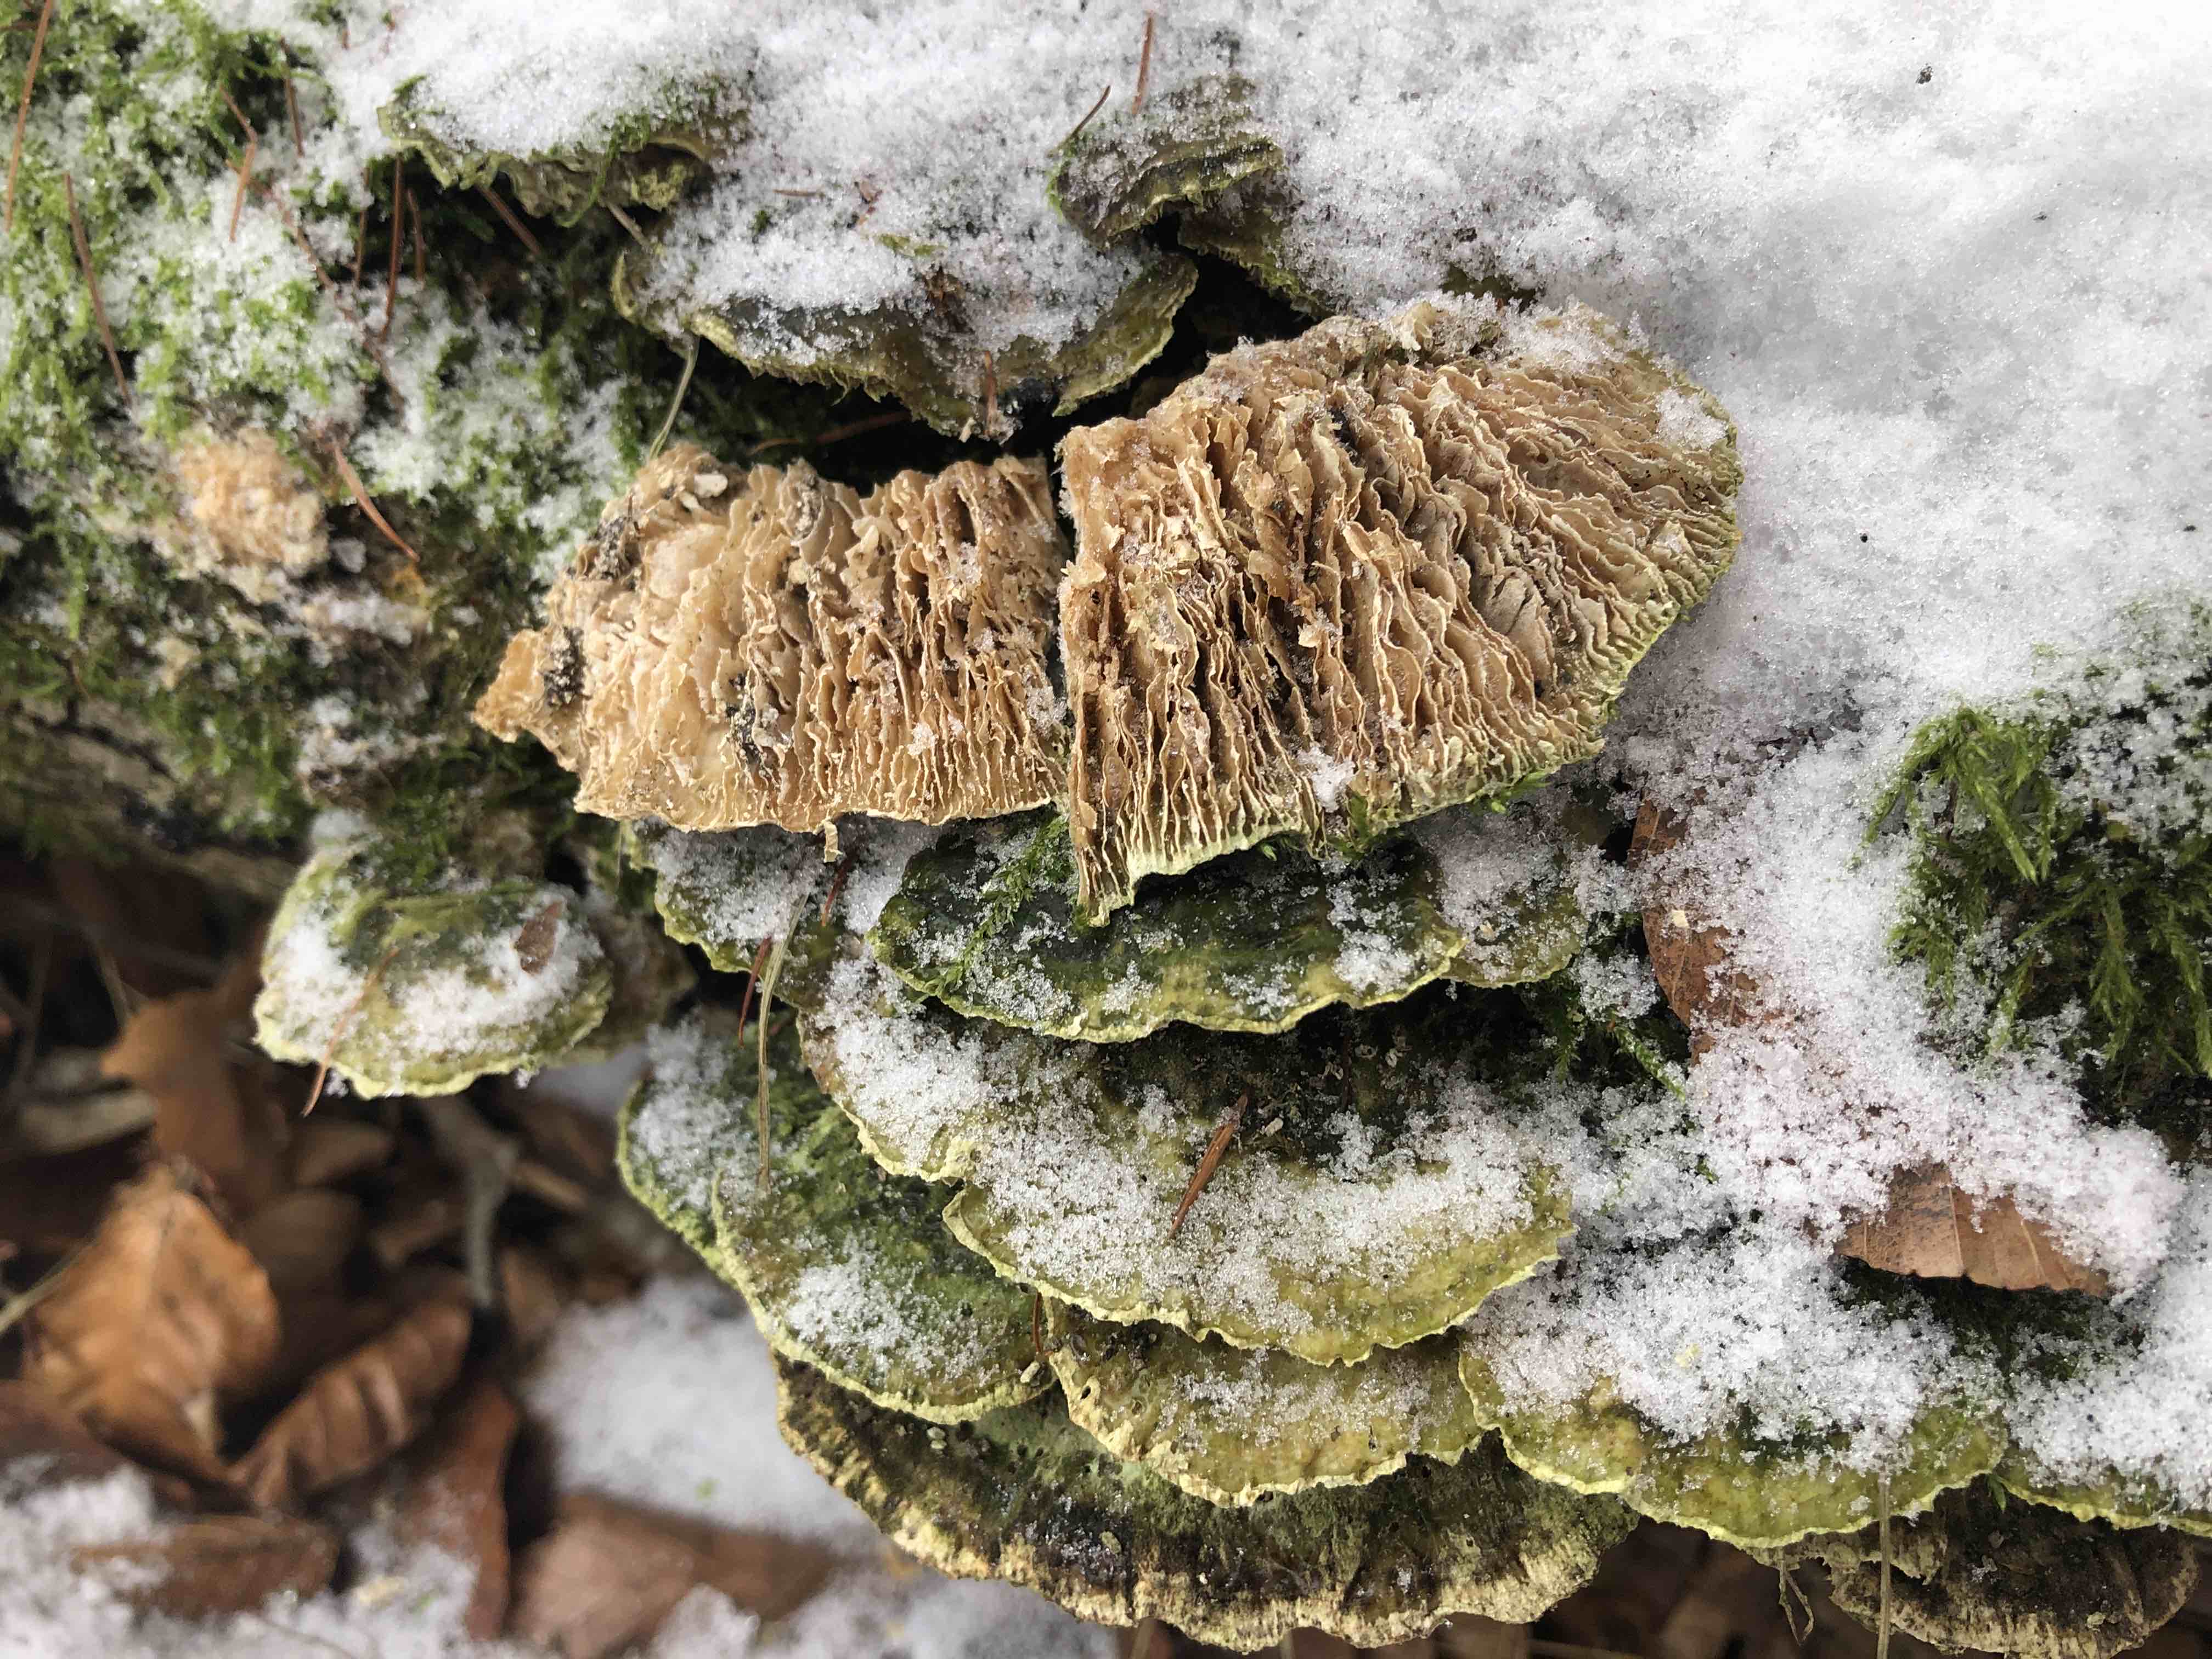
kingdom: Fungi
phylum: Basidiomycota
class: Agaricomycetes
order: Polyporales
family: Polyporaceae
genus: Lenzites
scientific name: Lenzites betulinus
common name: birke-læderporesvamp
